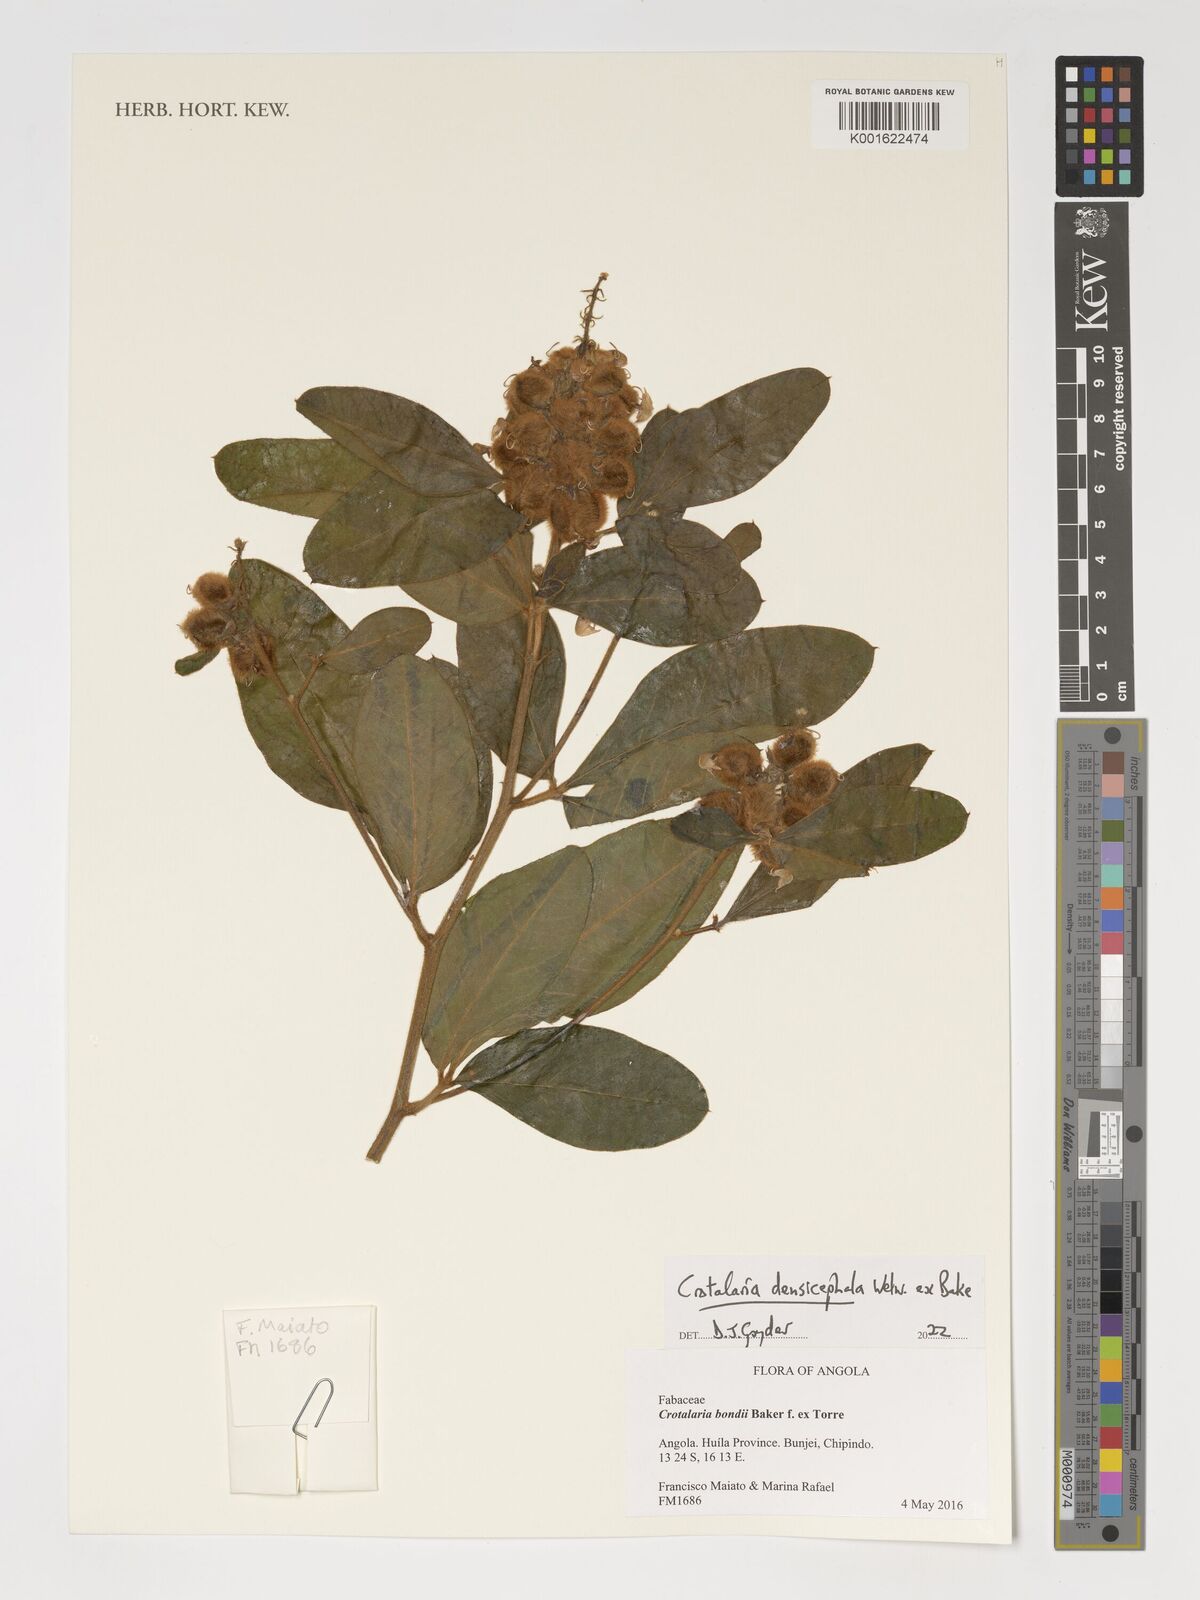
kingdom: Plantae
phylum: Tracheophyta
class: Magnoliopsida
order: Fabales
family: Fabaceae
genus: Crotalaria
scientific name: Crotalaria densicephala
